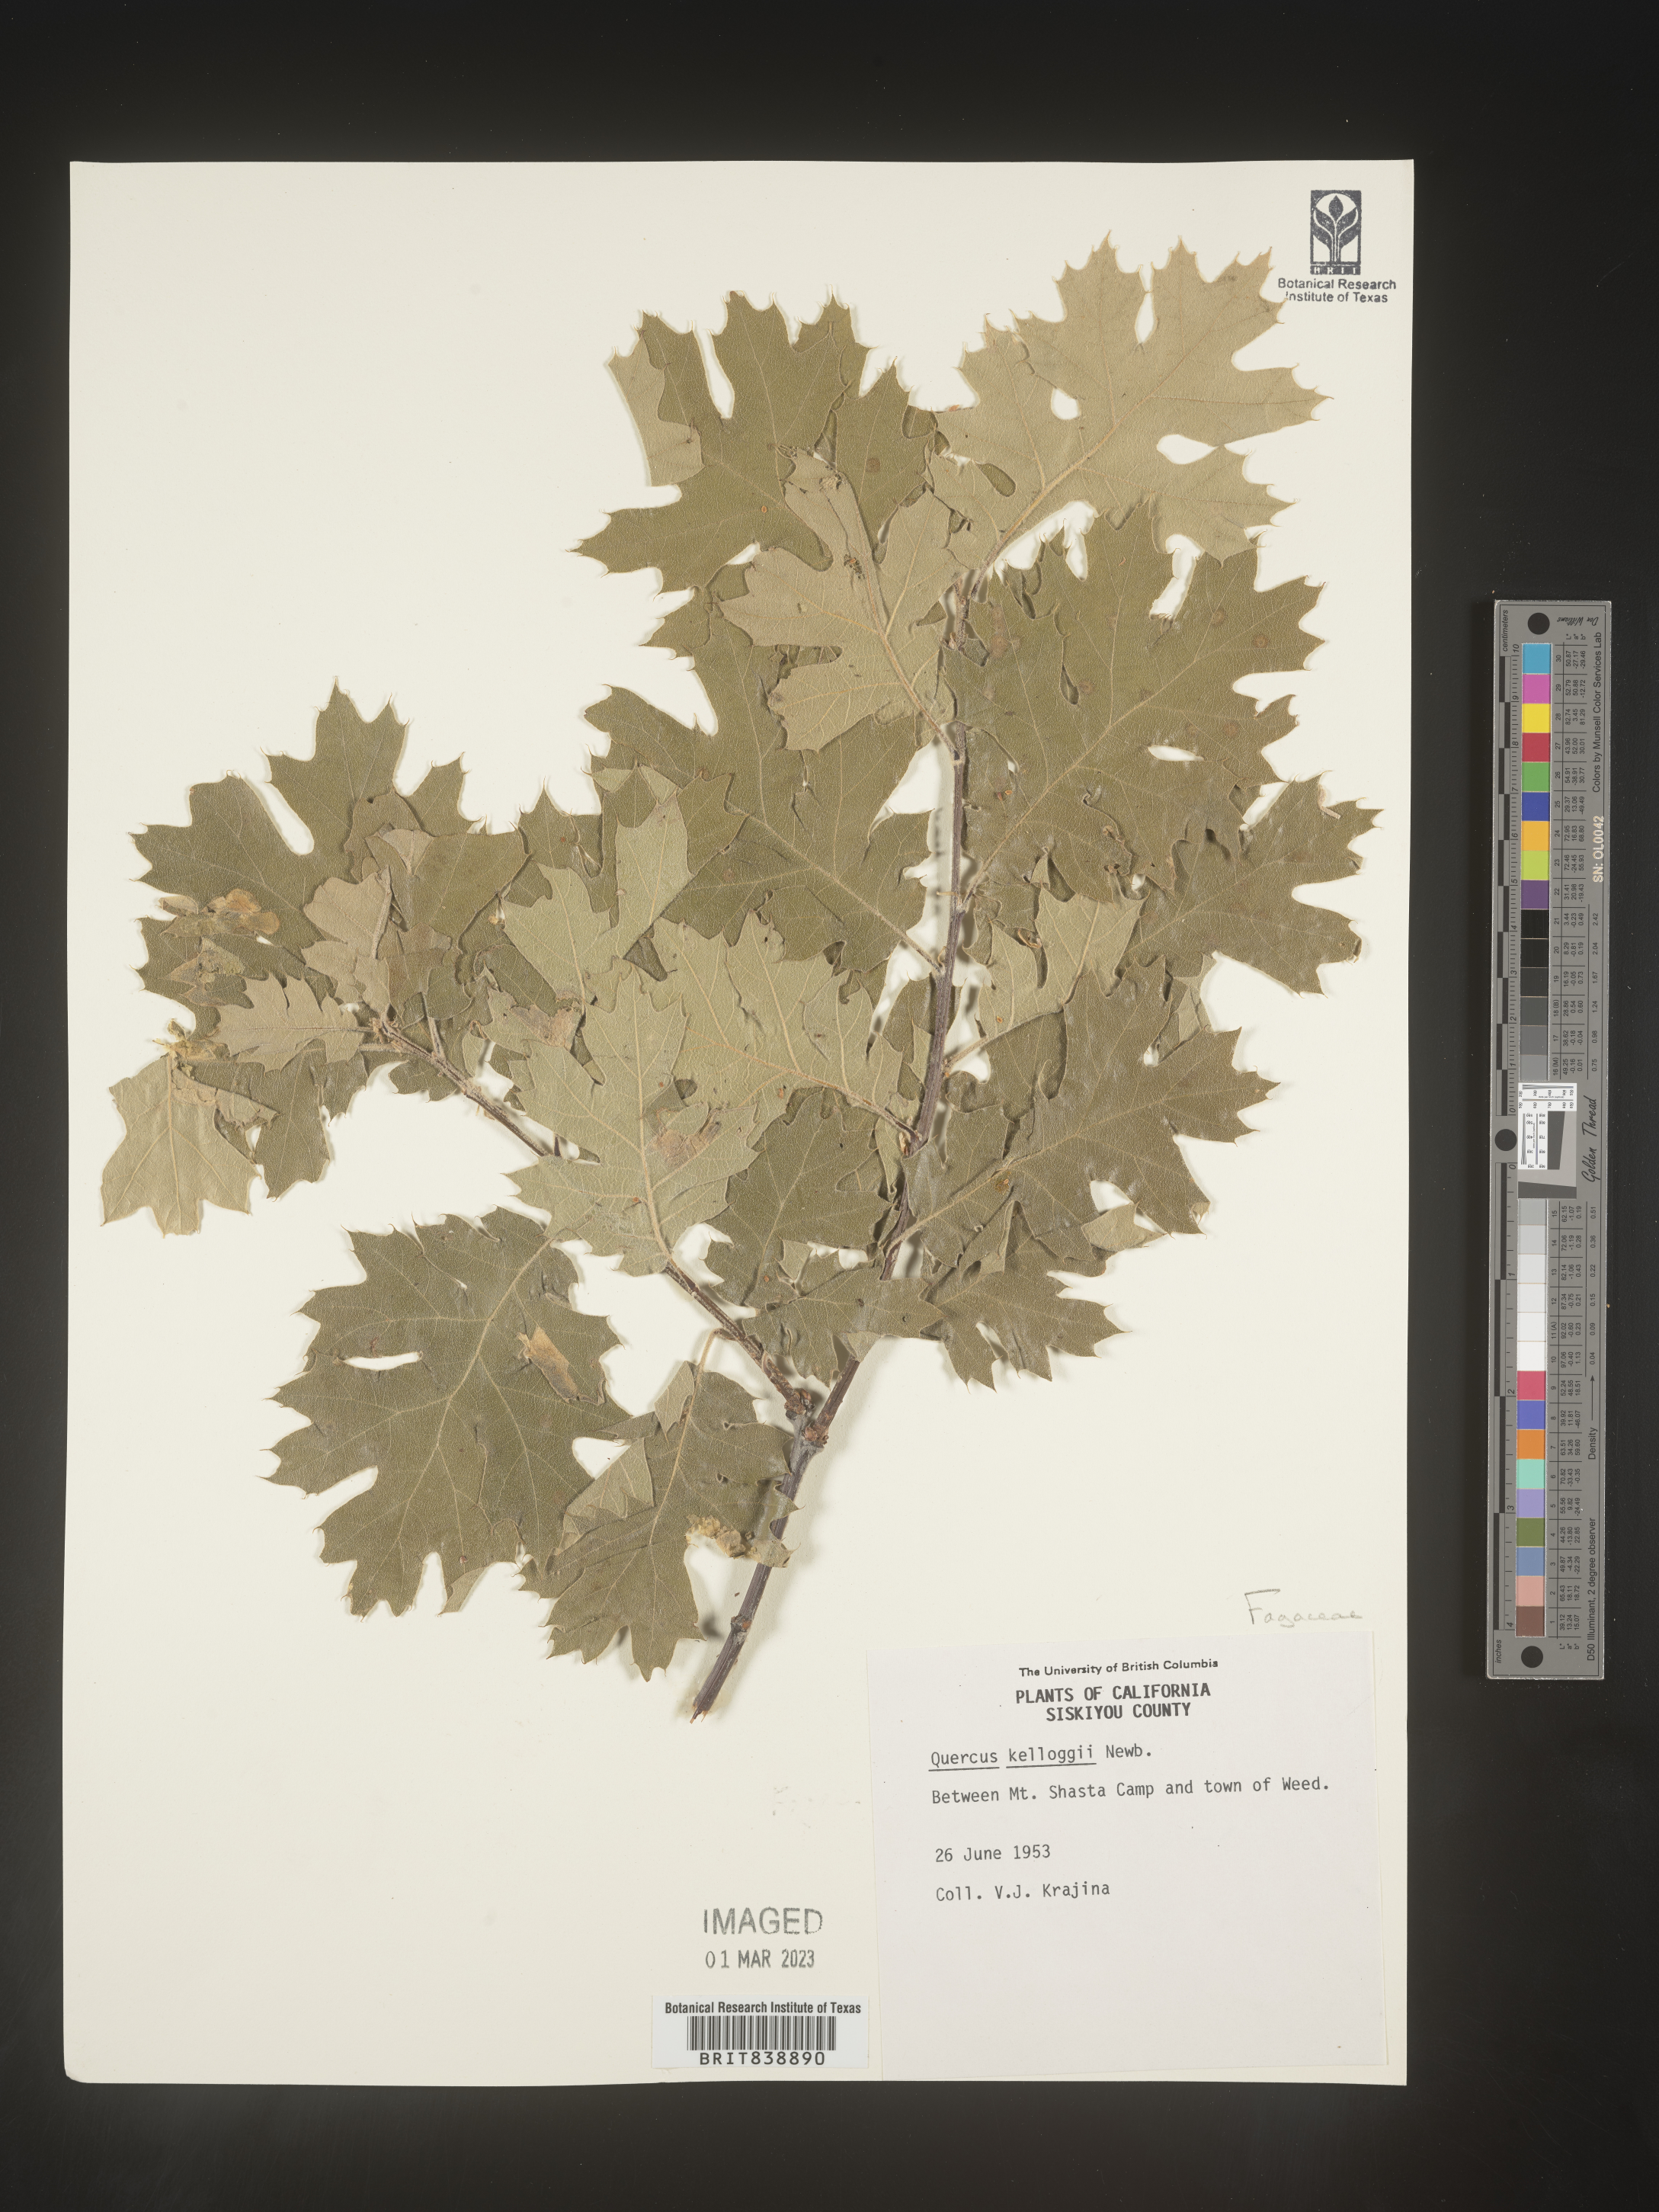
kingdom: Plantae
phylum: Tracheophyta
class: Magnoliopsida
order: Fagales
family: Fagaceae
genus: Quercus
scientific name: Quercus kelloggii
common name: California black oak
